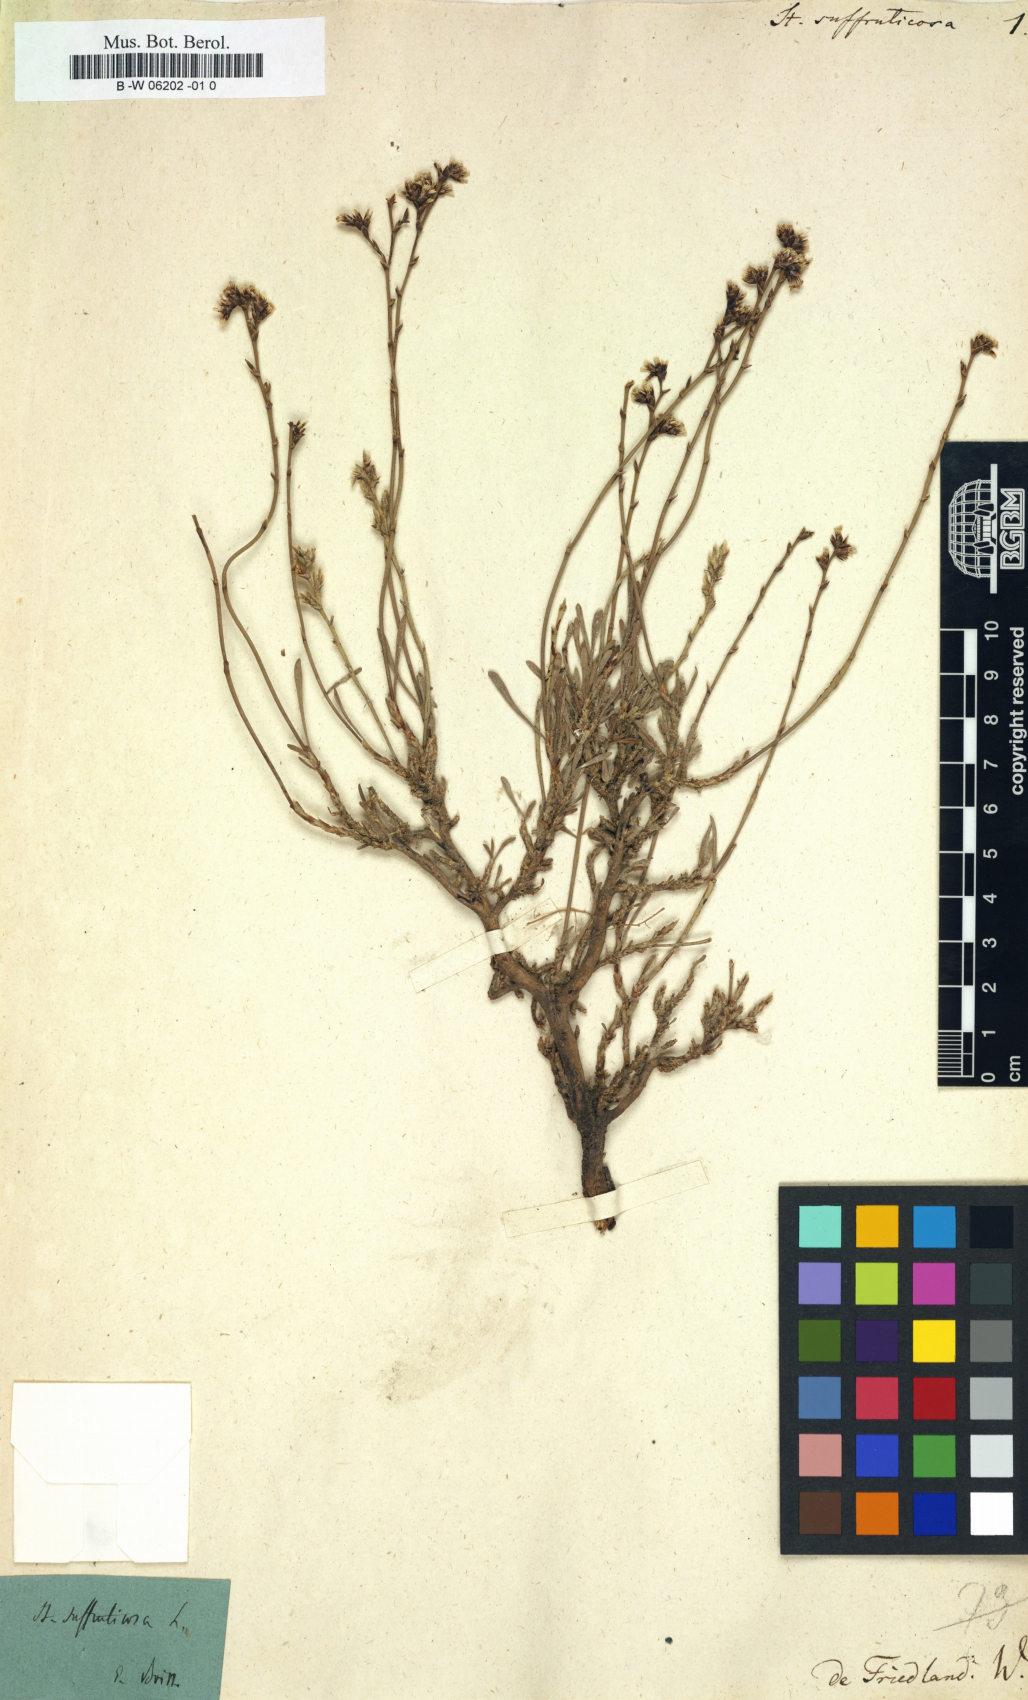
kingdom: Plantae
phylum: Tracheophyta
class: Magnoliopsida
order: Caryophyllales
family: Plumbaginaceae
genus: Limonium
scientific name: Limonium suffruticosum
